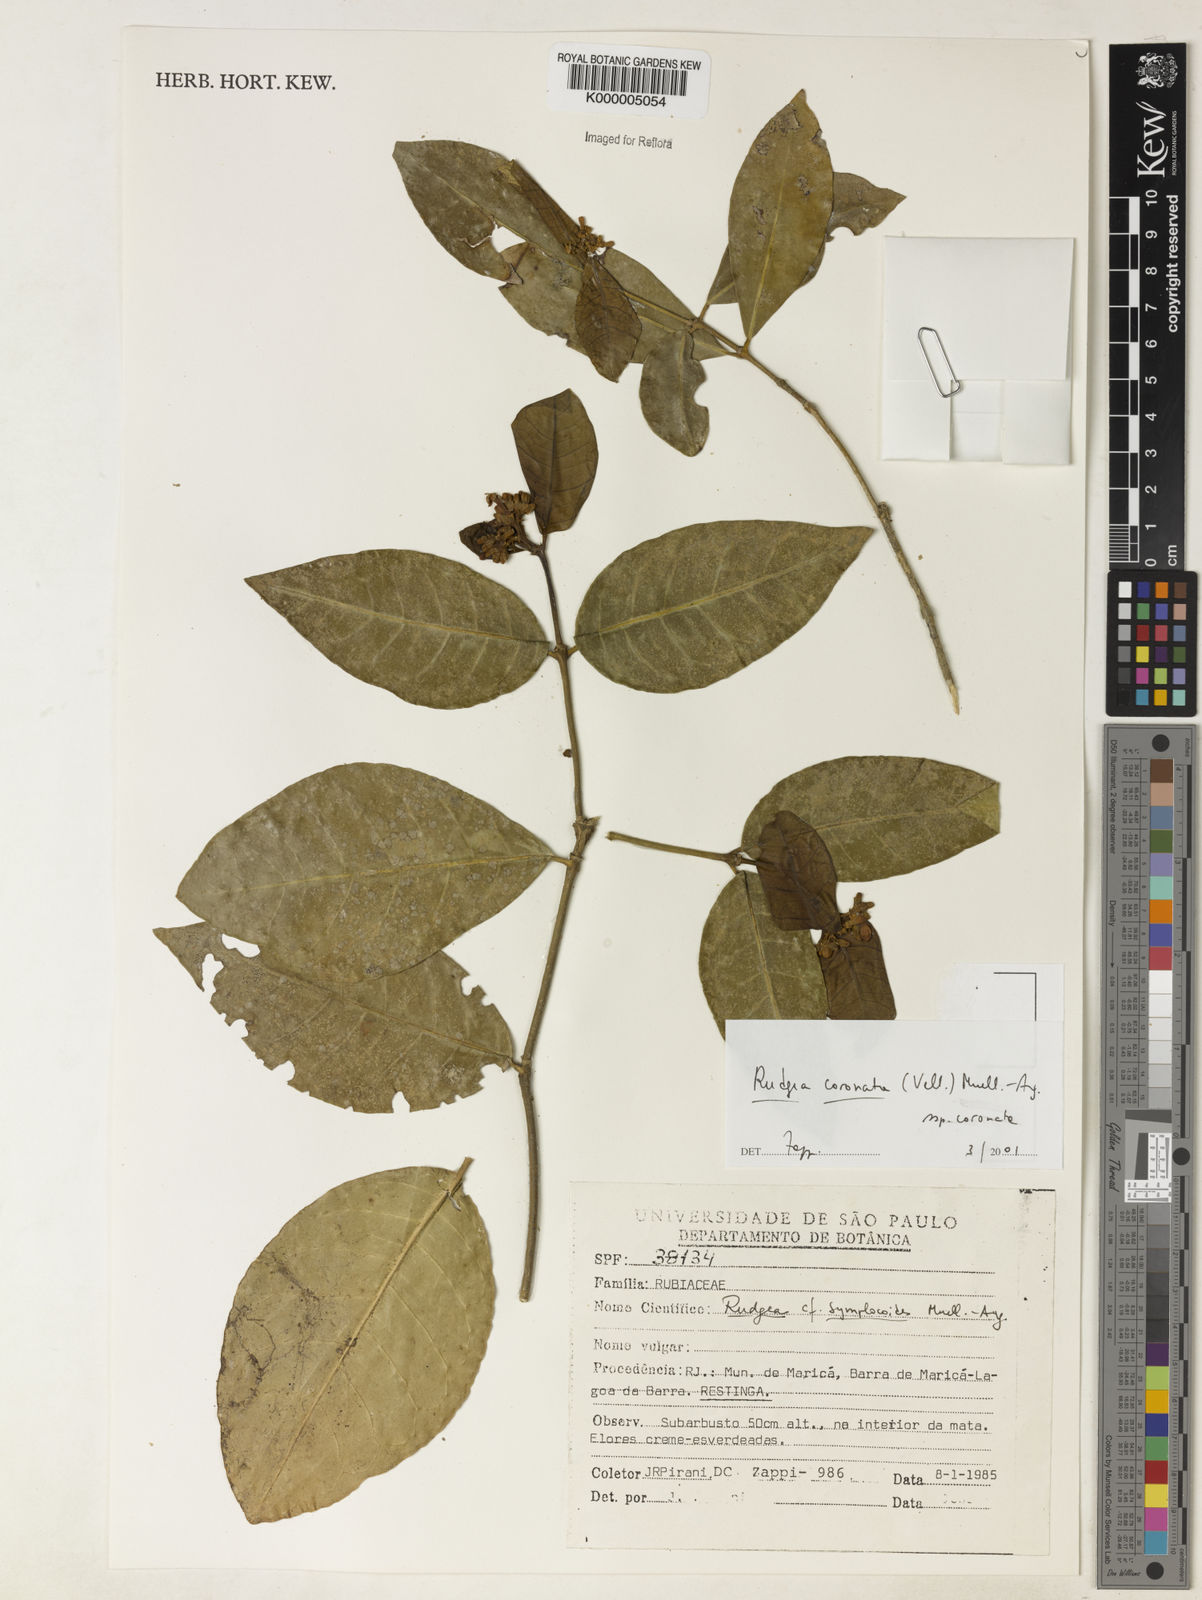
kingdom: Plantae
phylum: Tracheophyta
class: Magnoliopsida
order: Gentianales
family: Rubiaceae
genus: Rudgea
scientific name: Rudgea coronata
